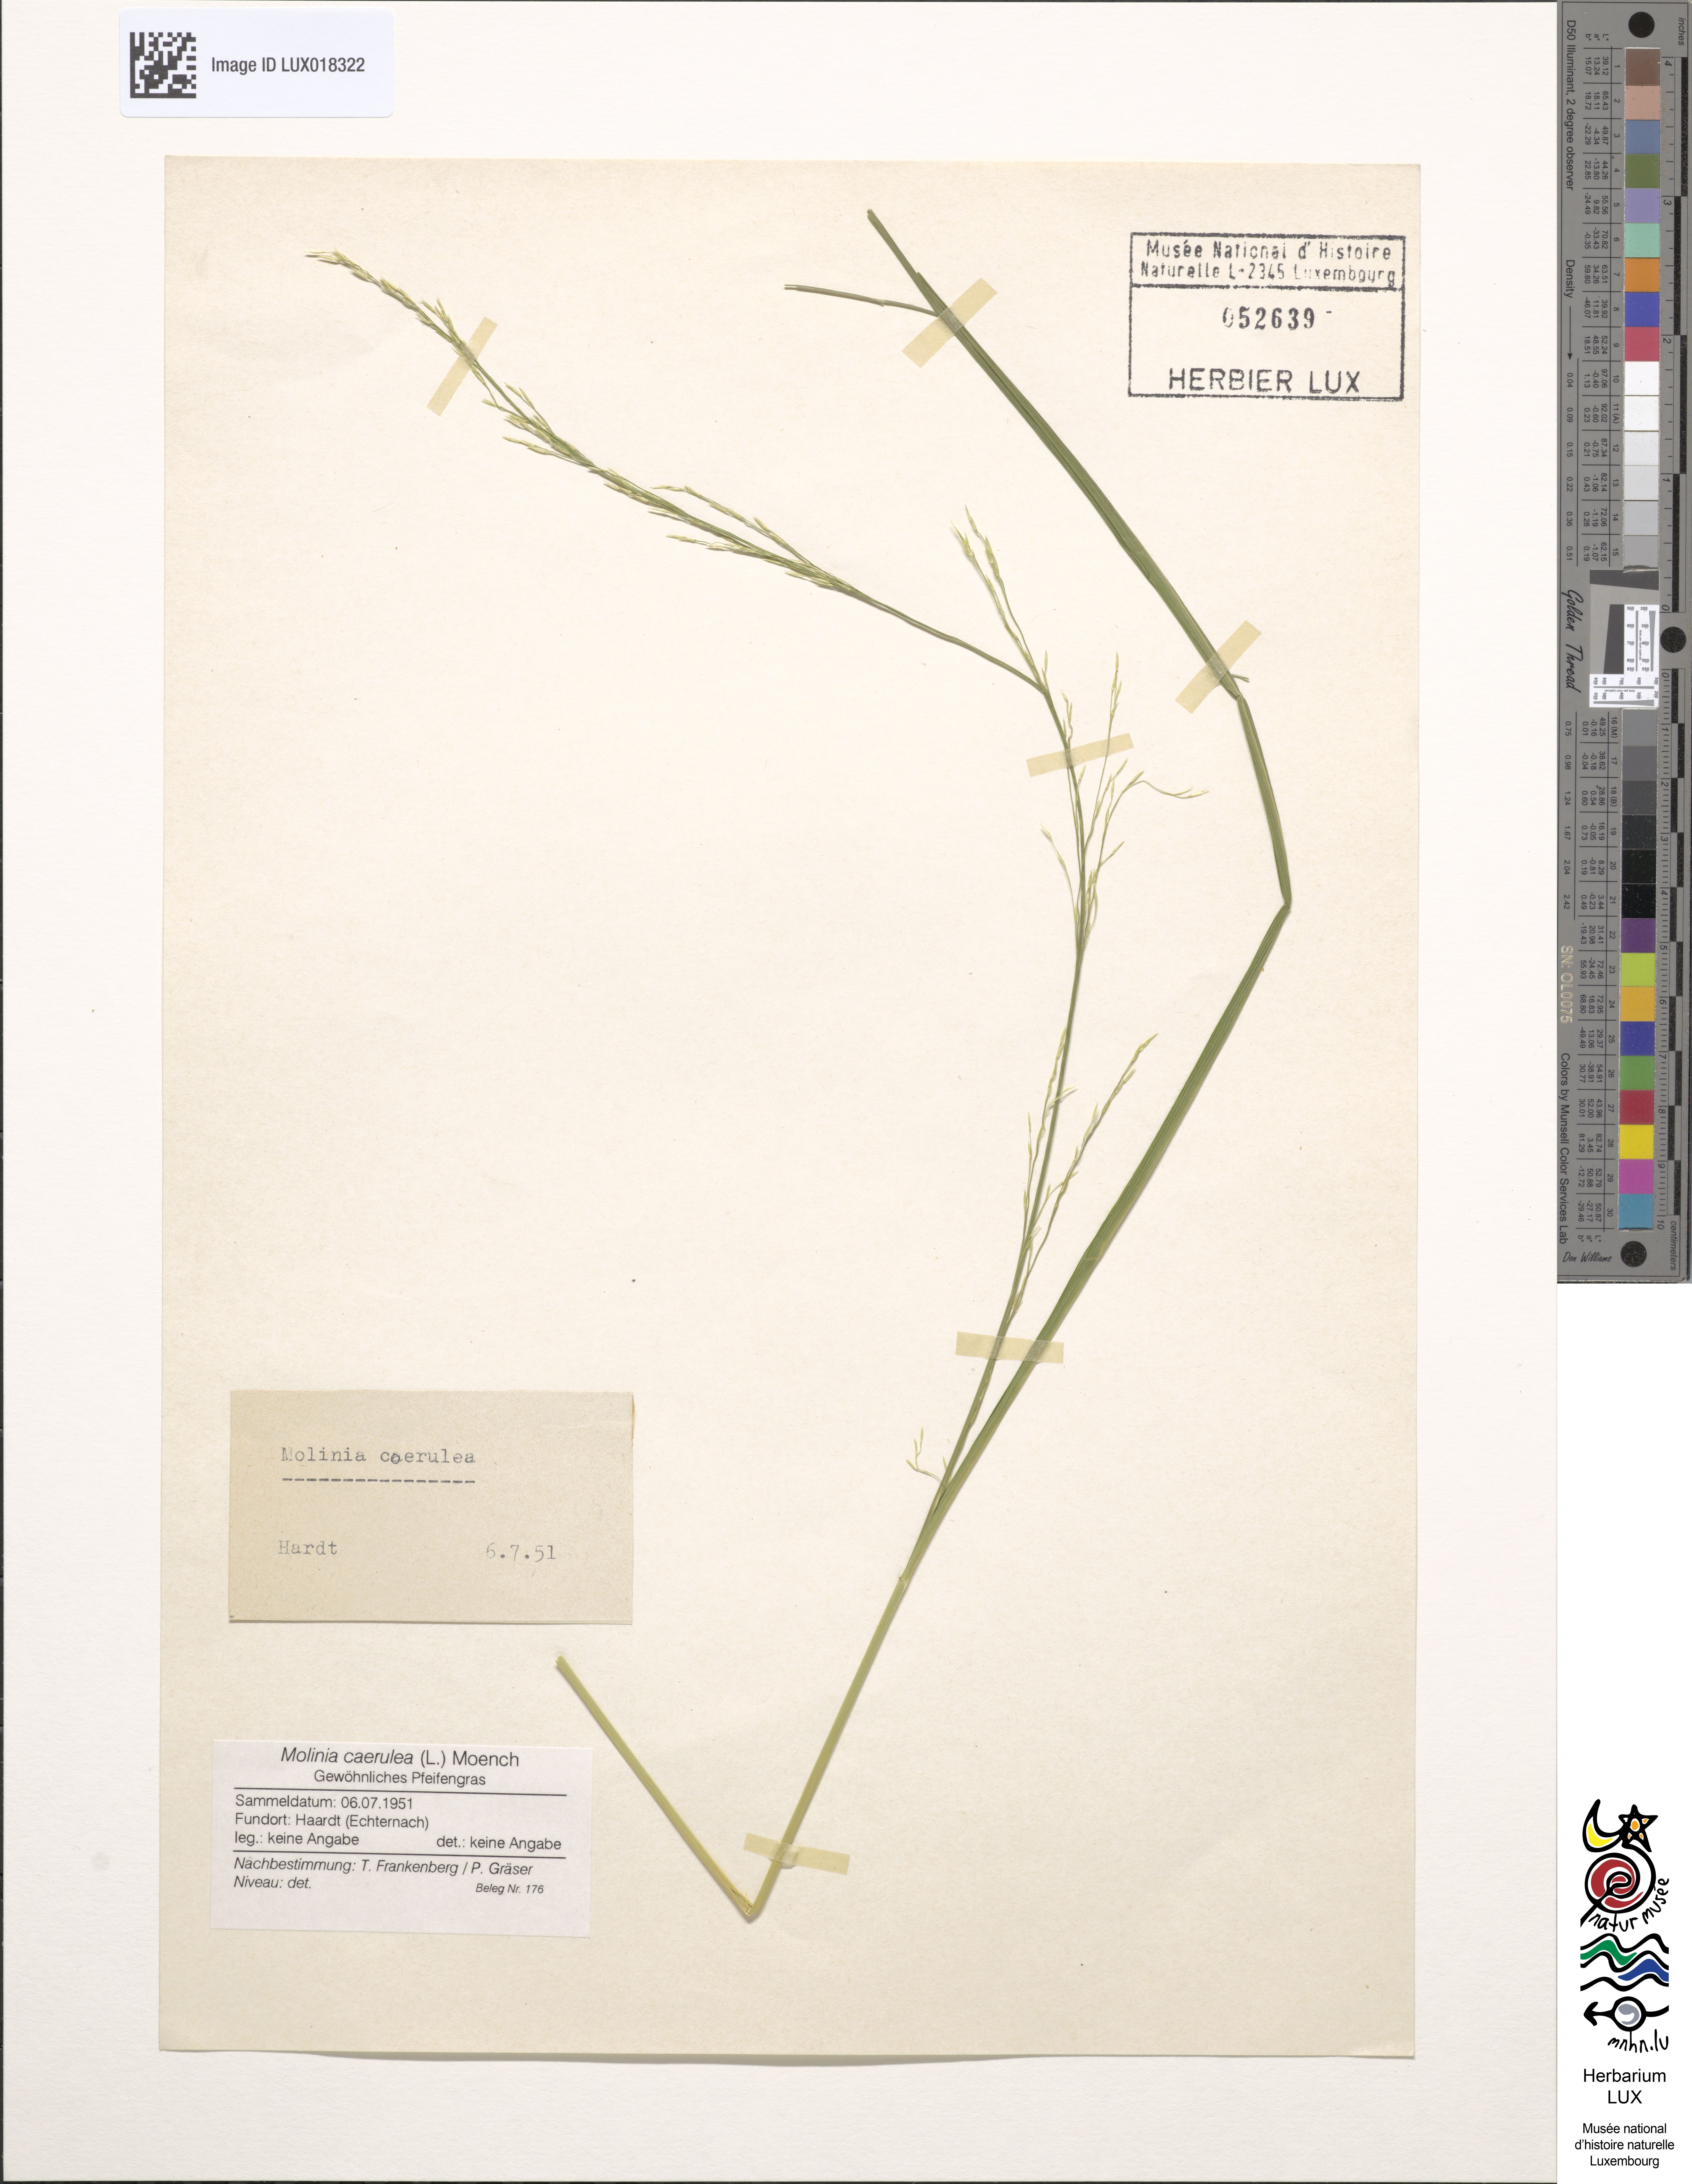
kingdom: Plantae
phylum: Tracheophyta
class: Liliopsida
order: Poales
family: Poaceae
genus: Molinia
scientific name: Molinia caerulea
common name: Purple moor-grass
